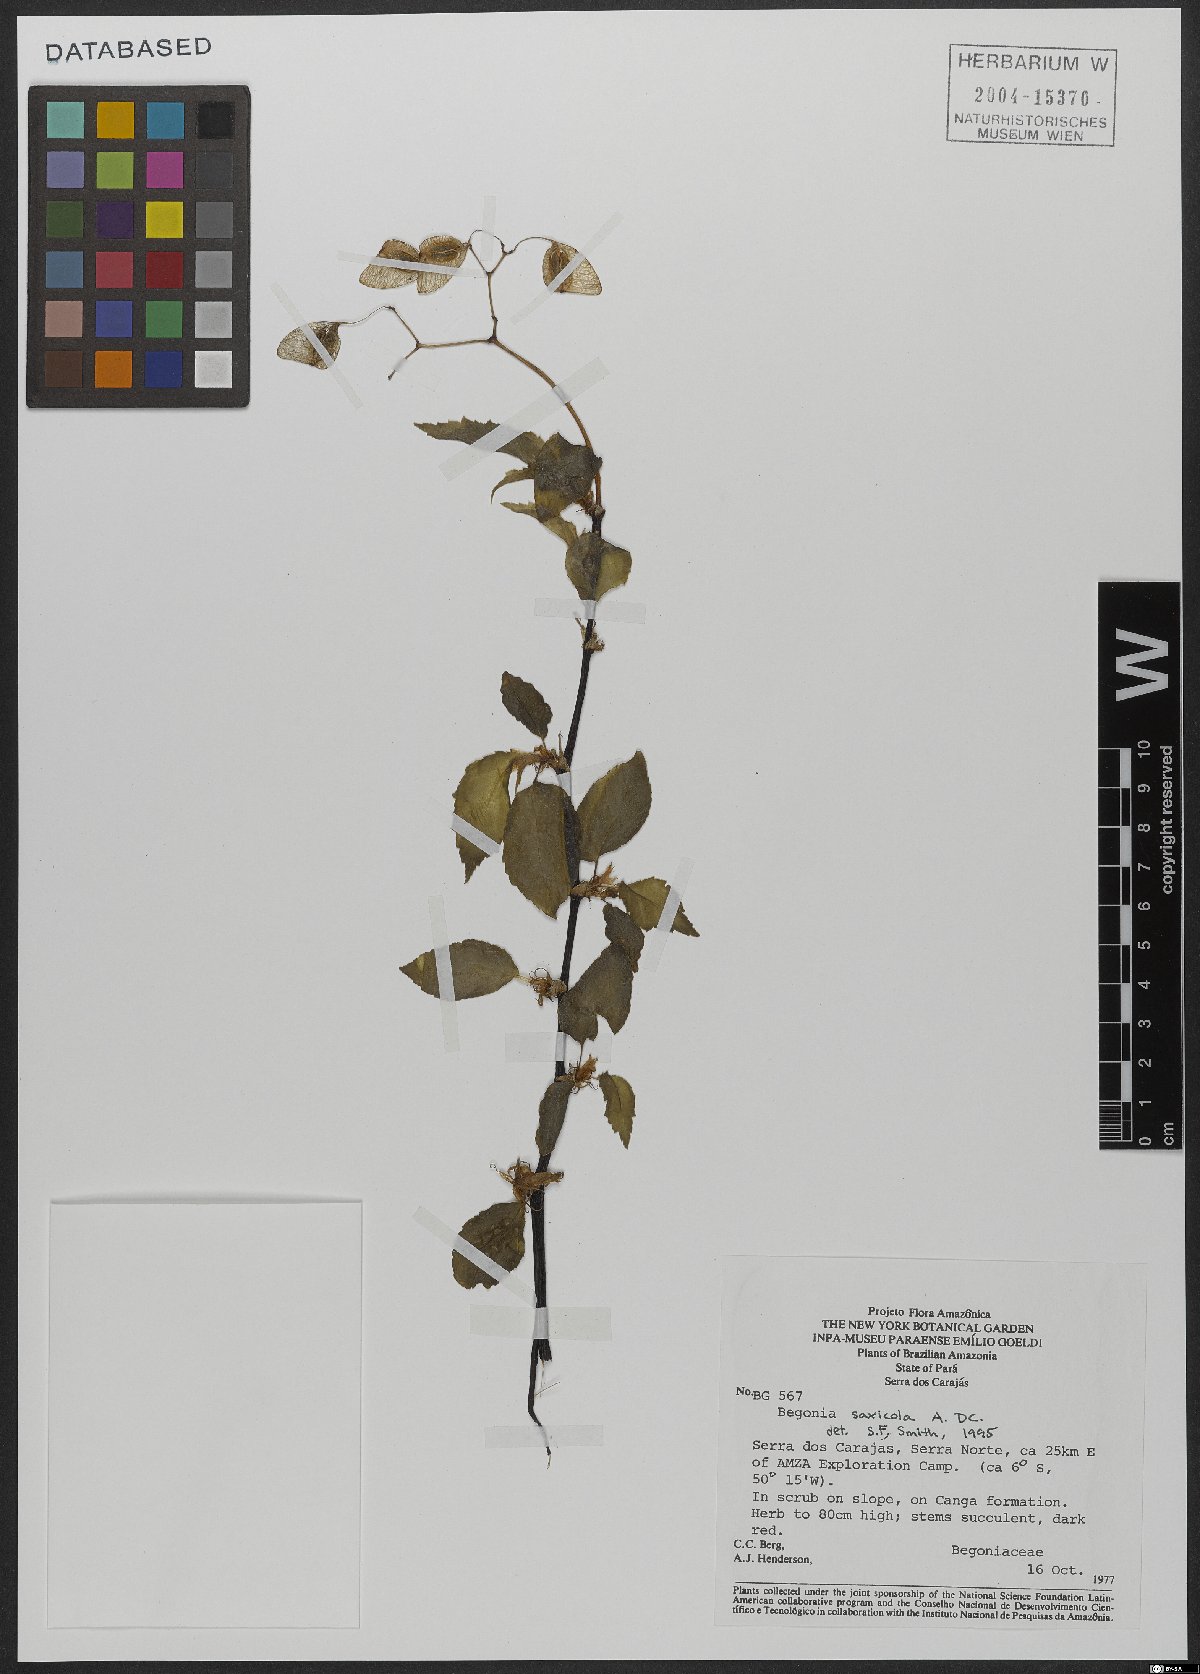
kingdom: Plantae
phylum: Tracheophyta
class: Magnoliopsida
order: Cucurbitales
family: Begoniaceae
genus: Begonia
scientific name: Begonia saxicola
